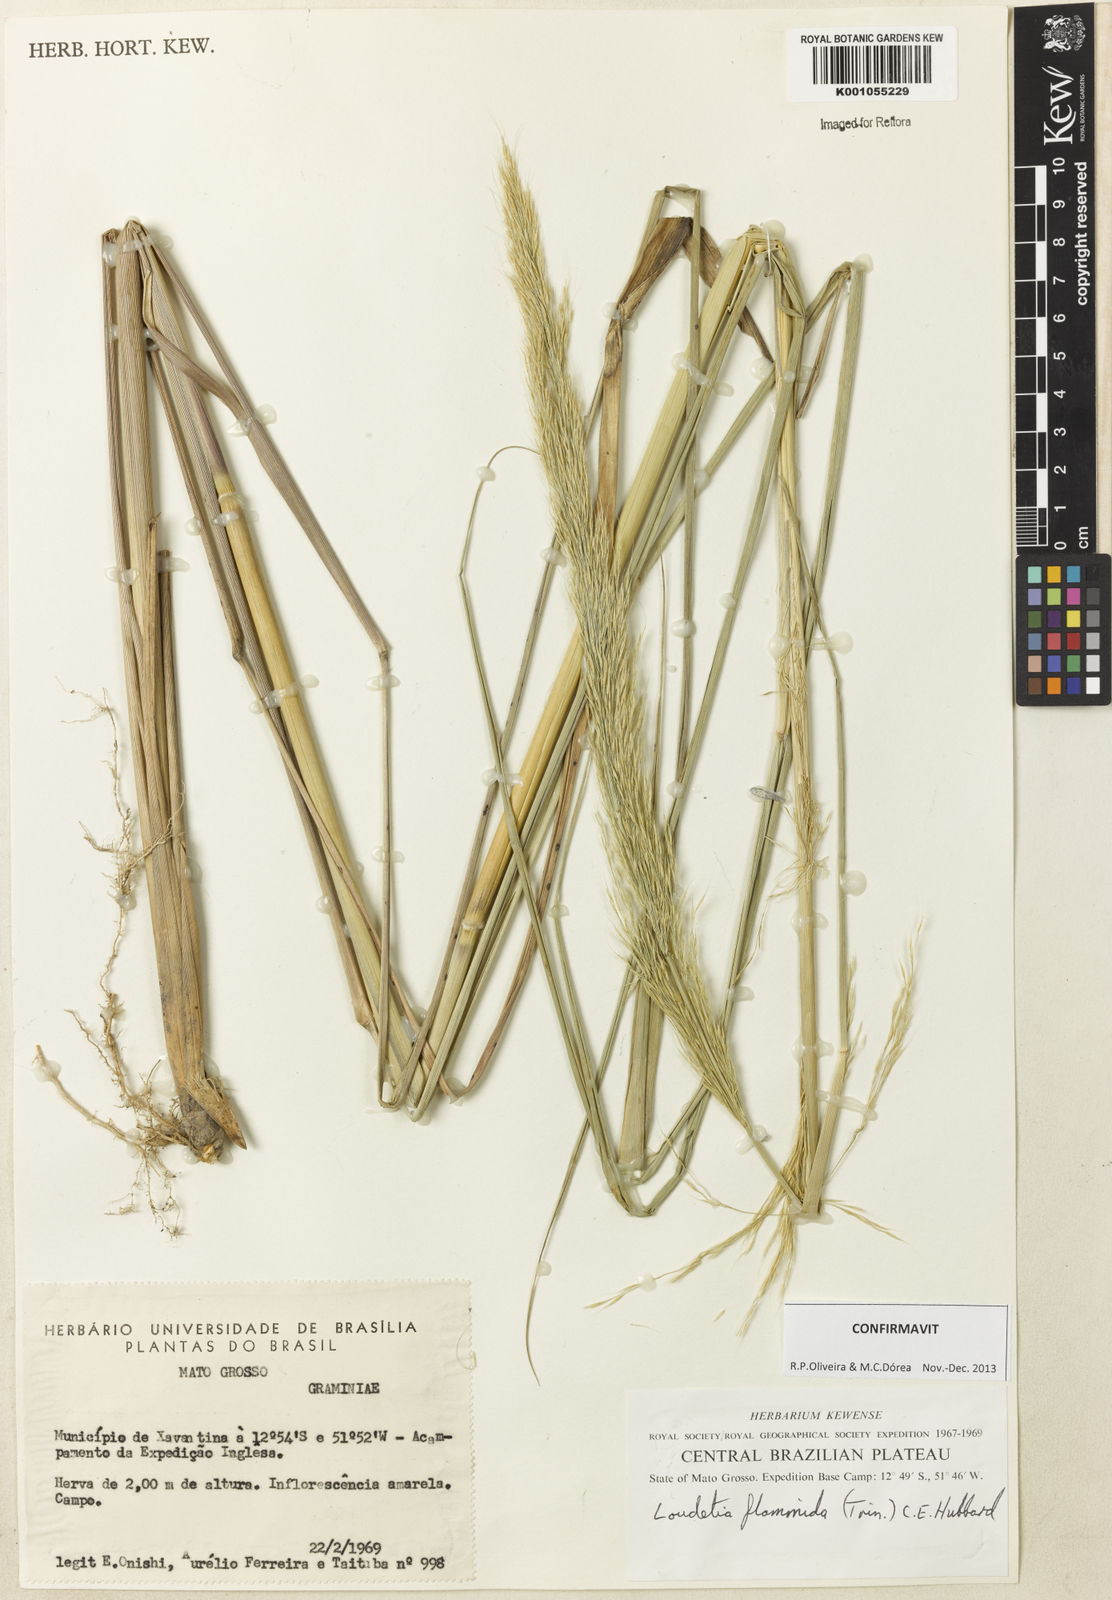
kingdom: Plantae
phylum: Tracheophyta
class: Liliopsida
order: Poales
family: Poaceae
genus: Loudetia
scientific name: Loudetia flammida
